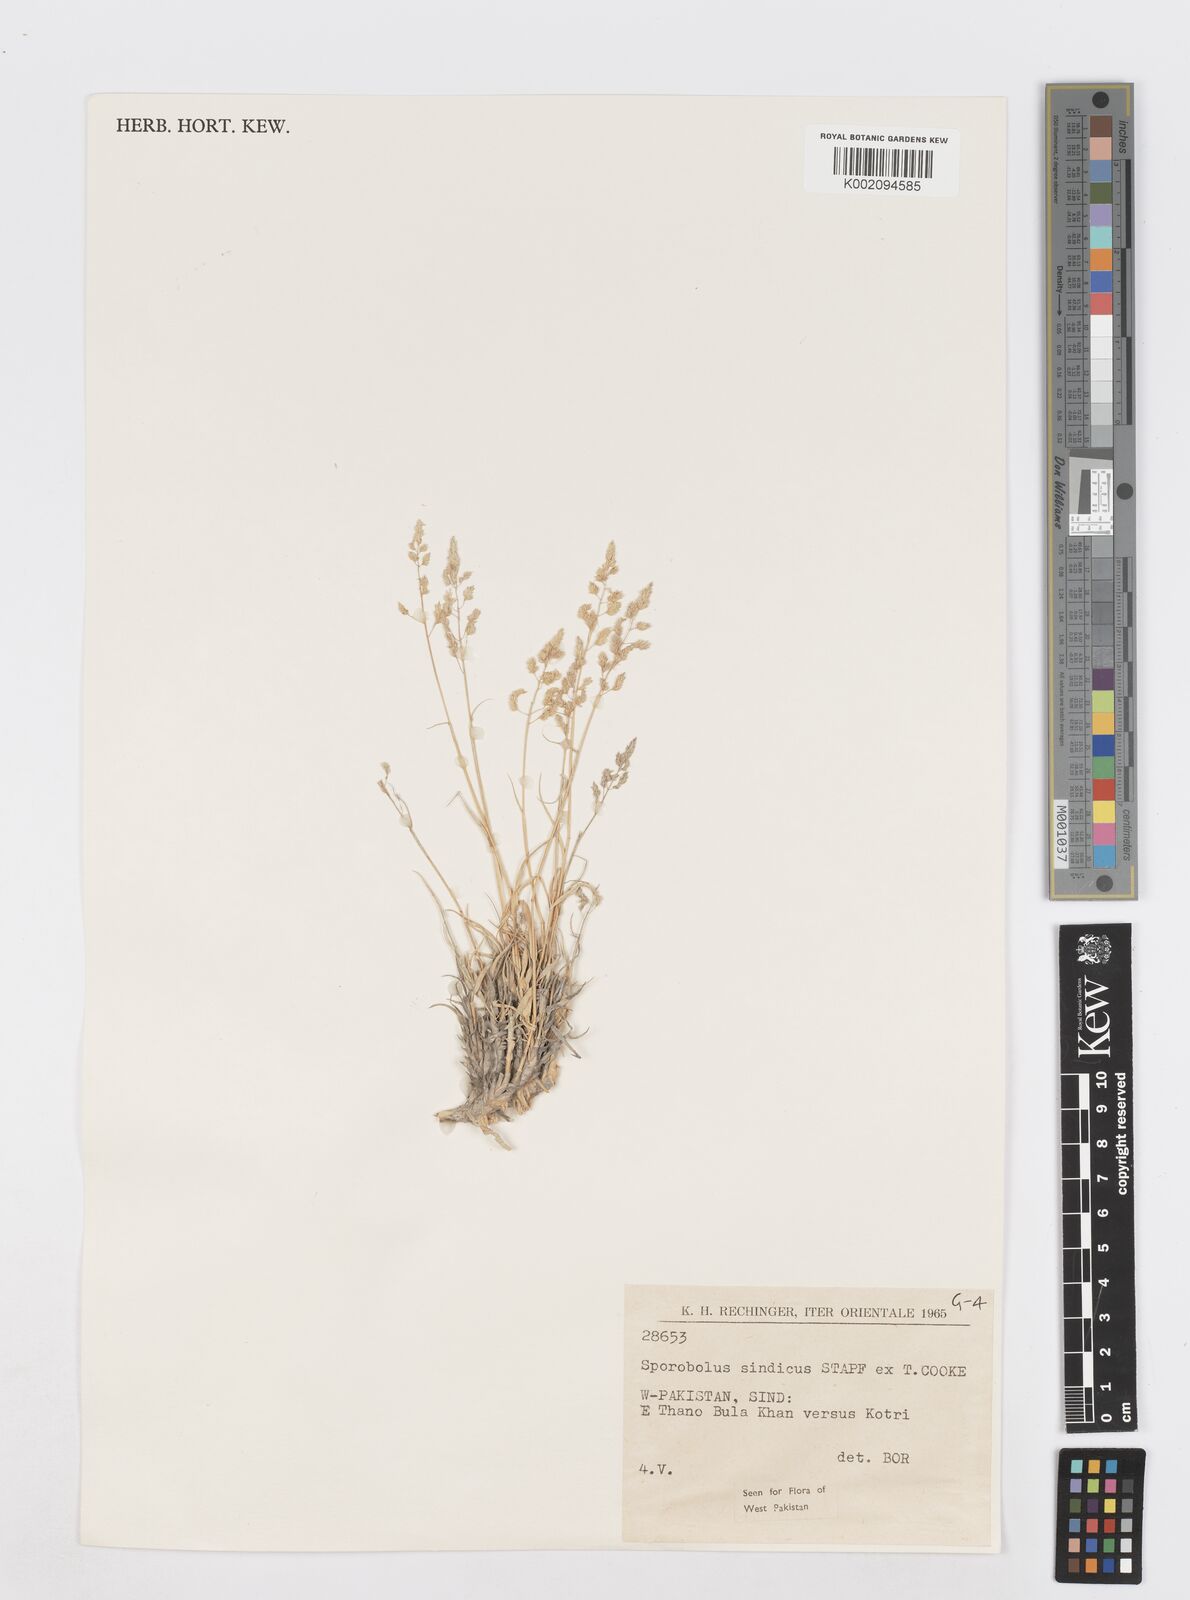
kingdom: Plantae
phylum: Tracheophyta
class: Liliopsida
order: Poales
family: Poaceae
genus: Sporobolus
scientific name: Sporobolus tourneuxii
